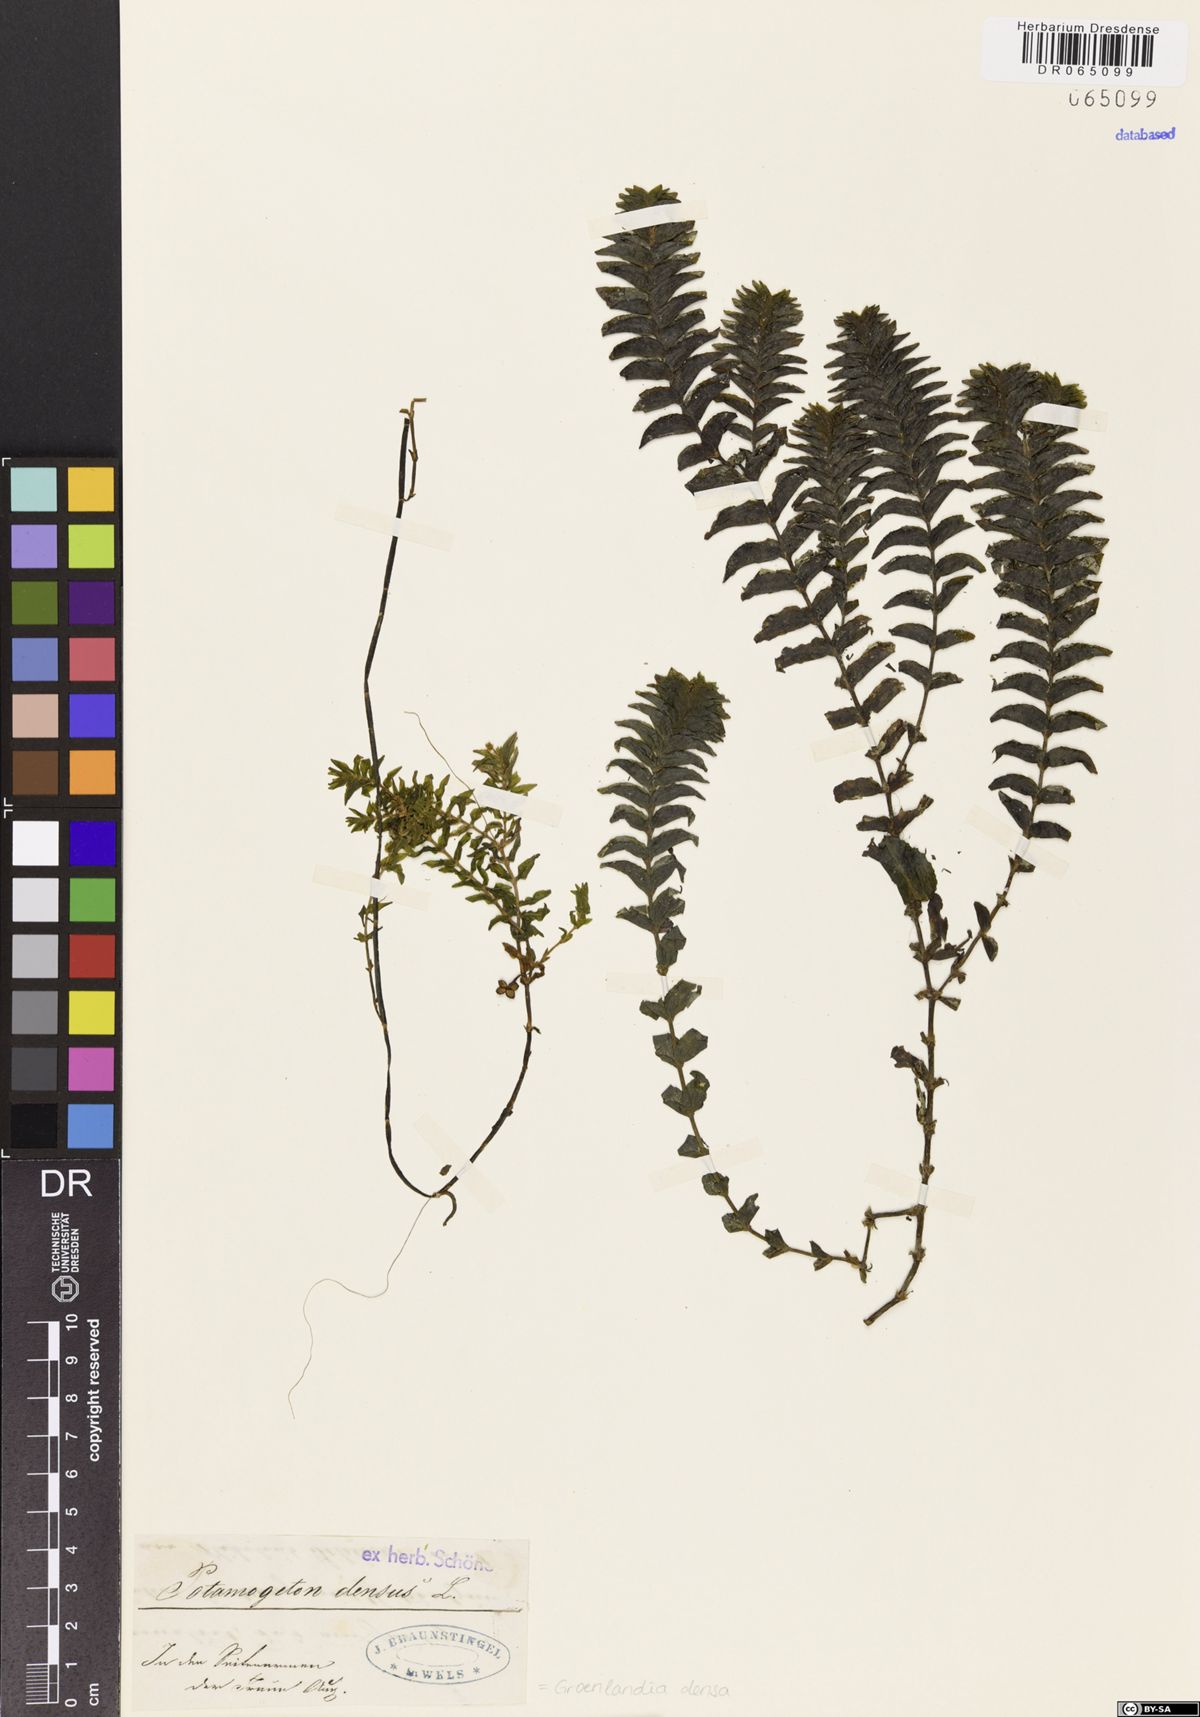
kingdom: Plantae
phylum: Tracheophyta
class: Liliopsida
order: Alismatales
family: Potamogetonaceae
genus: Groenlandia
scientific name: Groenlandia densa
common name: Opposite-leaved pondweed
